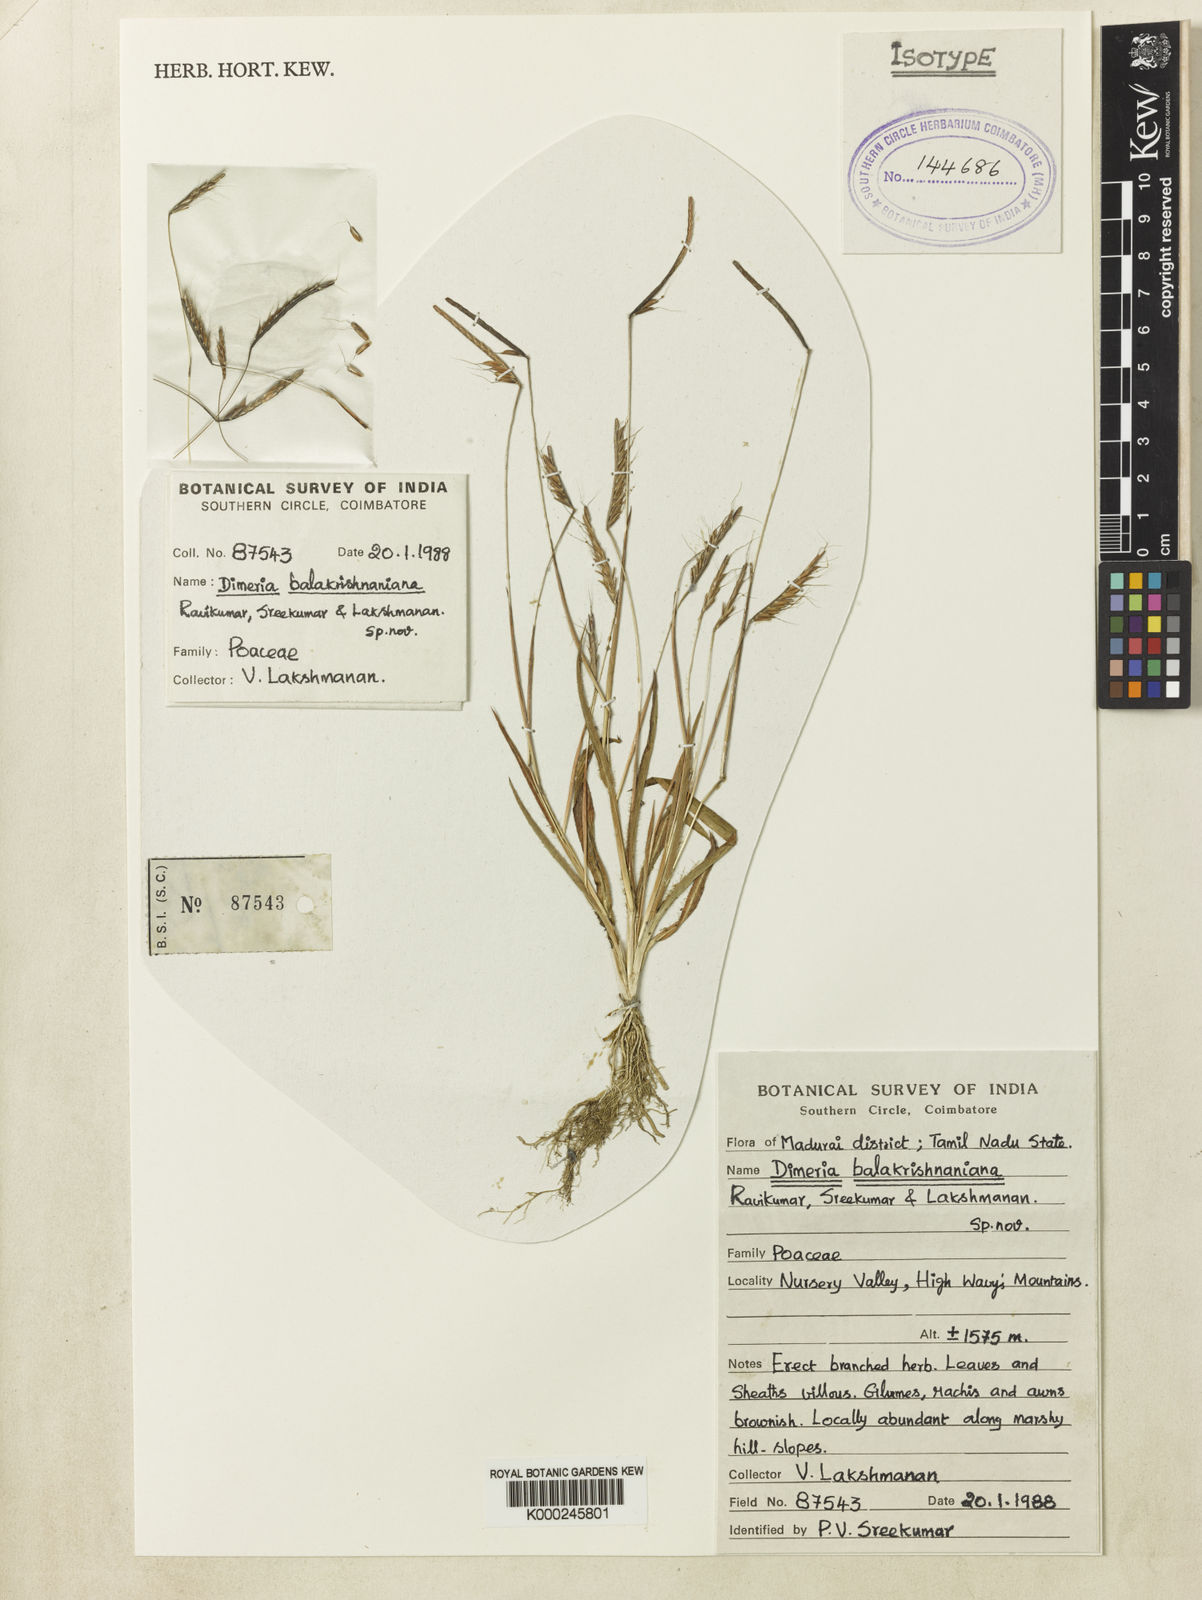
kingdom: Plantae
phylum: Tracheophyta
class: Liliopsida
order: Poales
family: Poaceae
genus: Dimeria
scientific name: Dimeria
